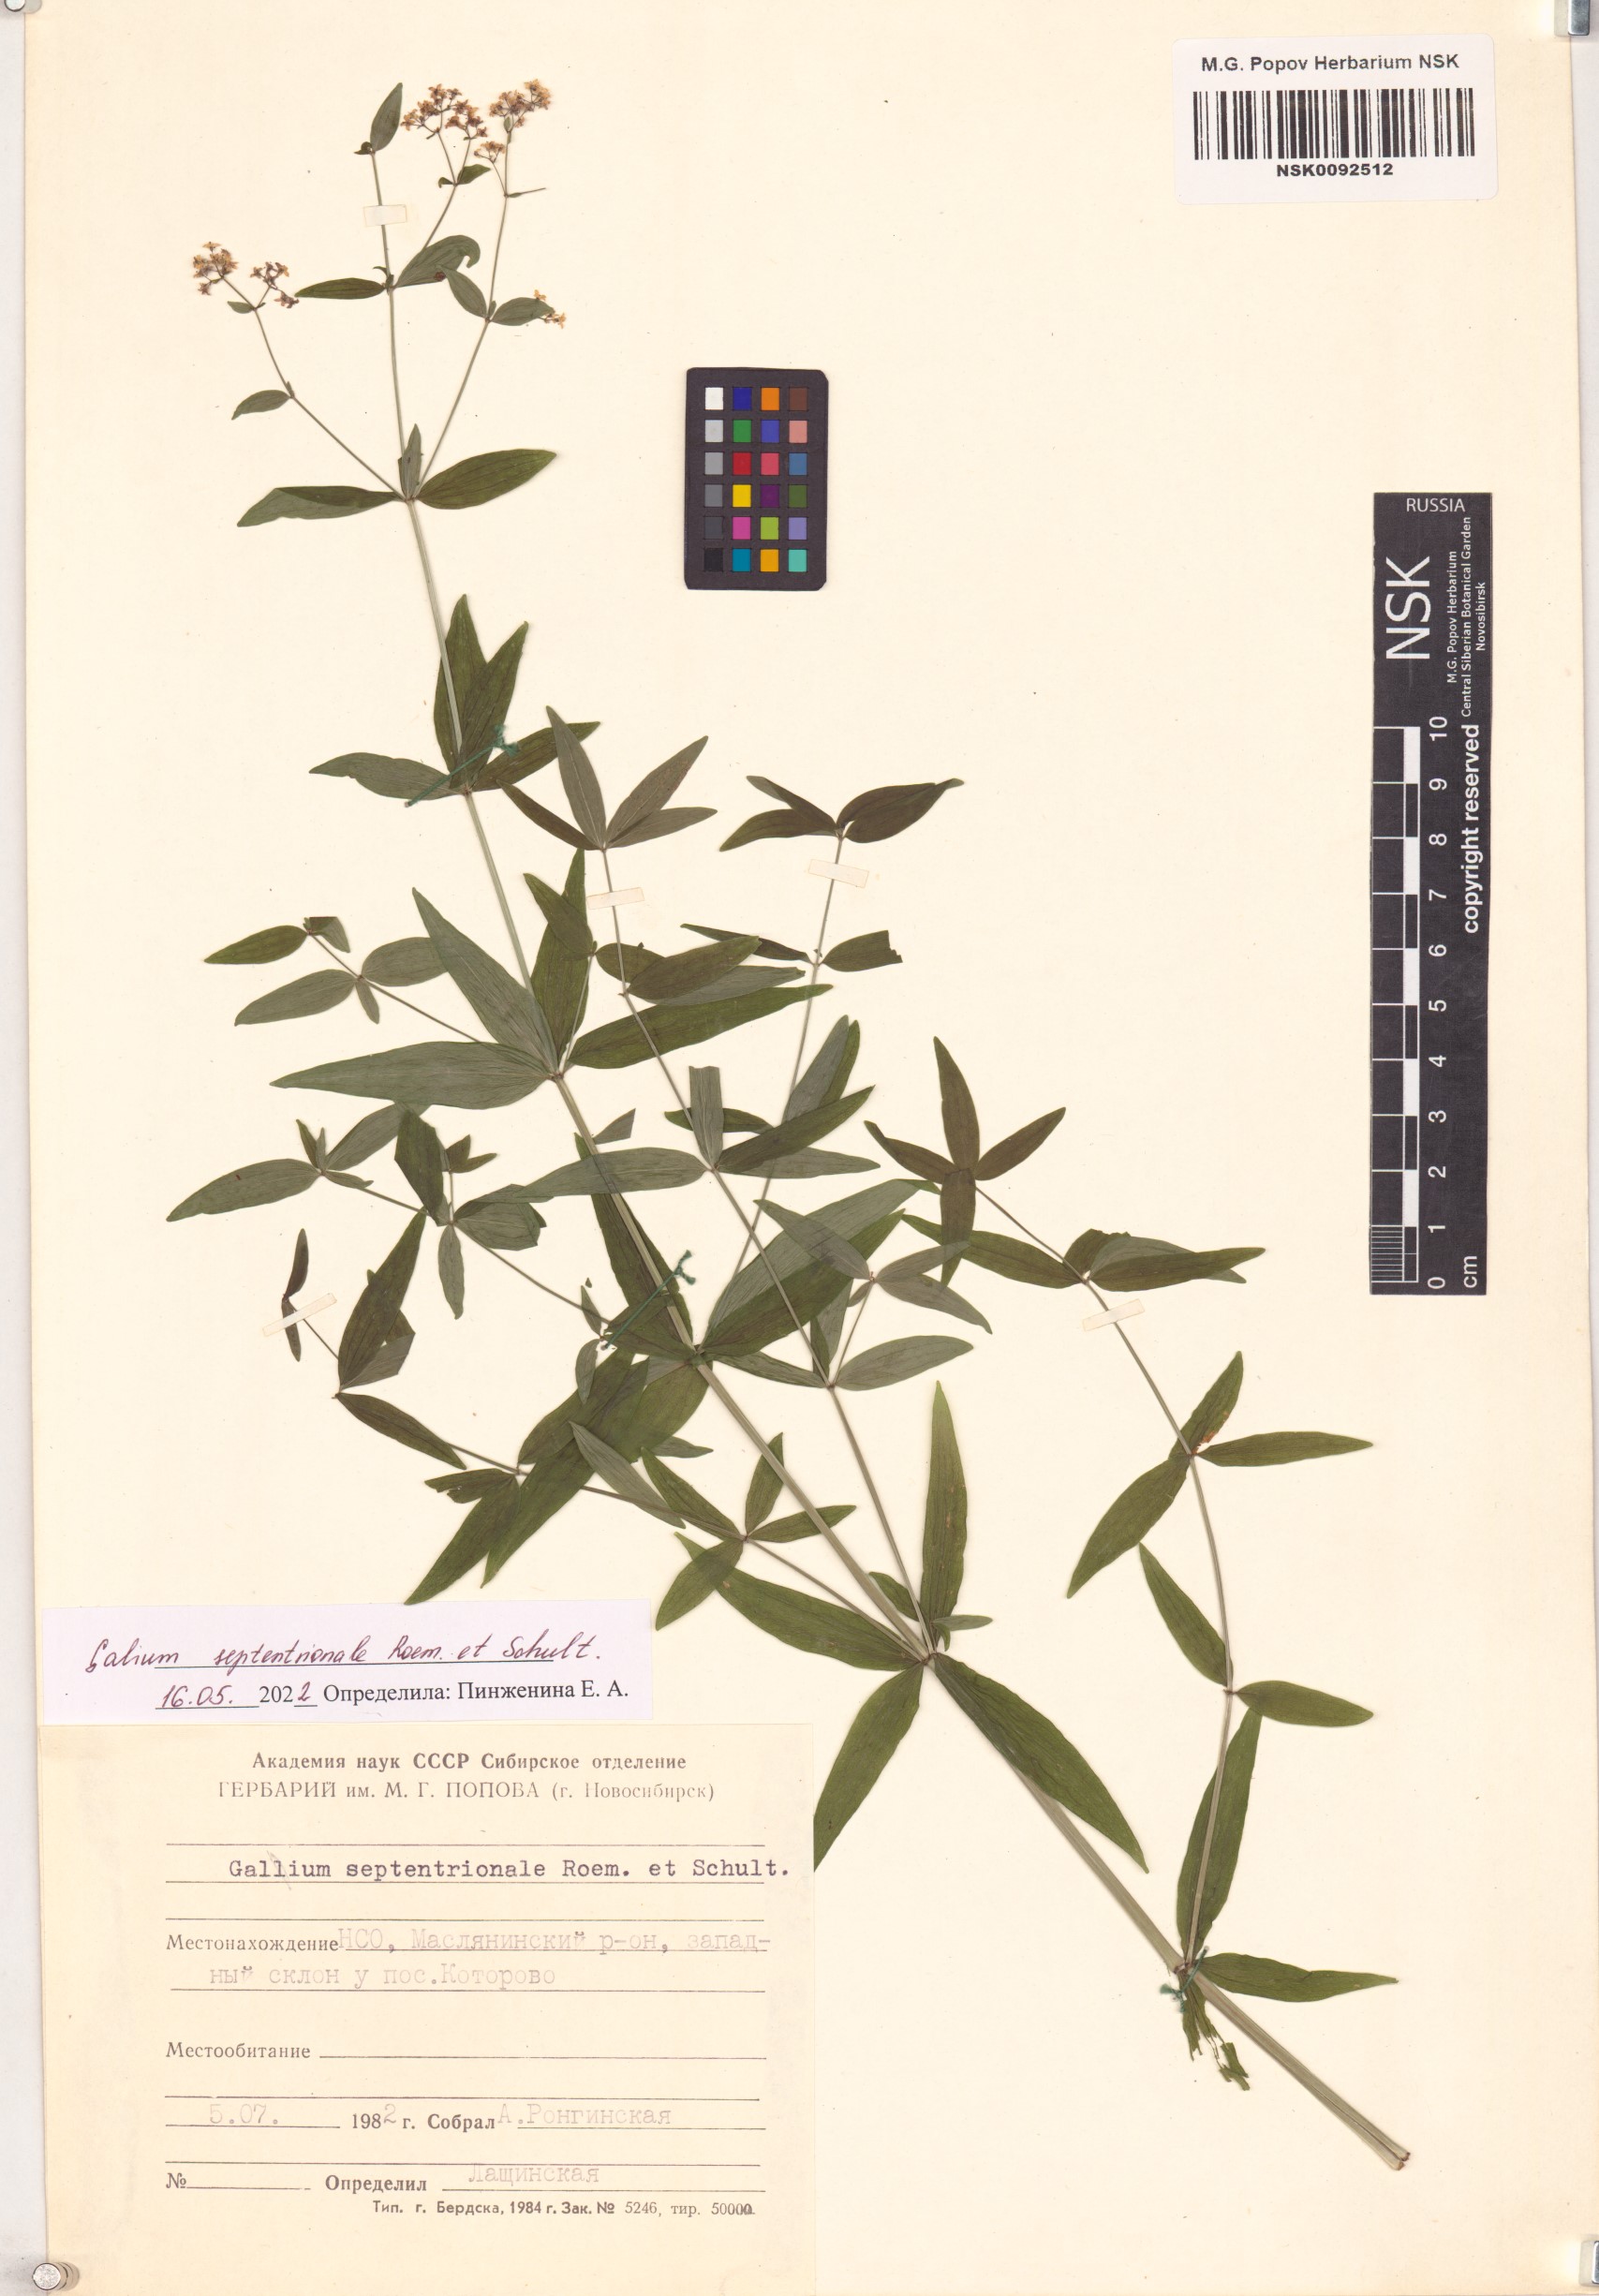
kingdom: Plantae
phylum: Tracheophyta
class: Magnoliopsida
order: Gentianales
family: Rubiaceae
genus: Galium
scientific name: Galium boreale
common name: Northern bedstraw
